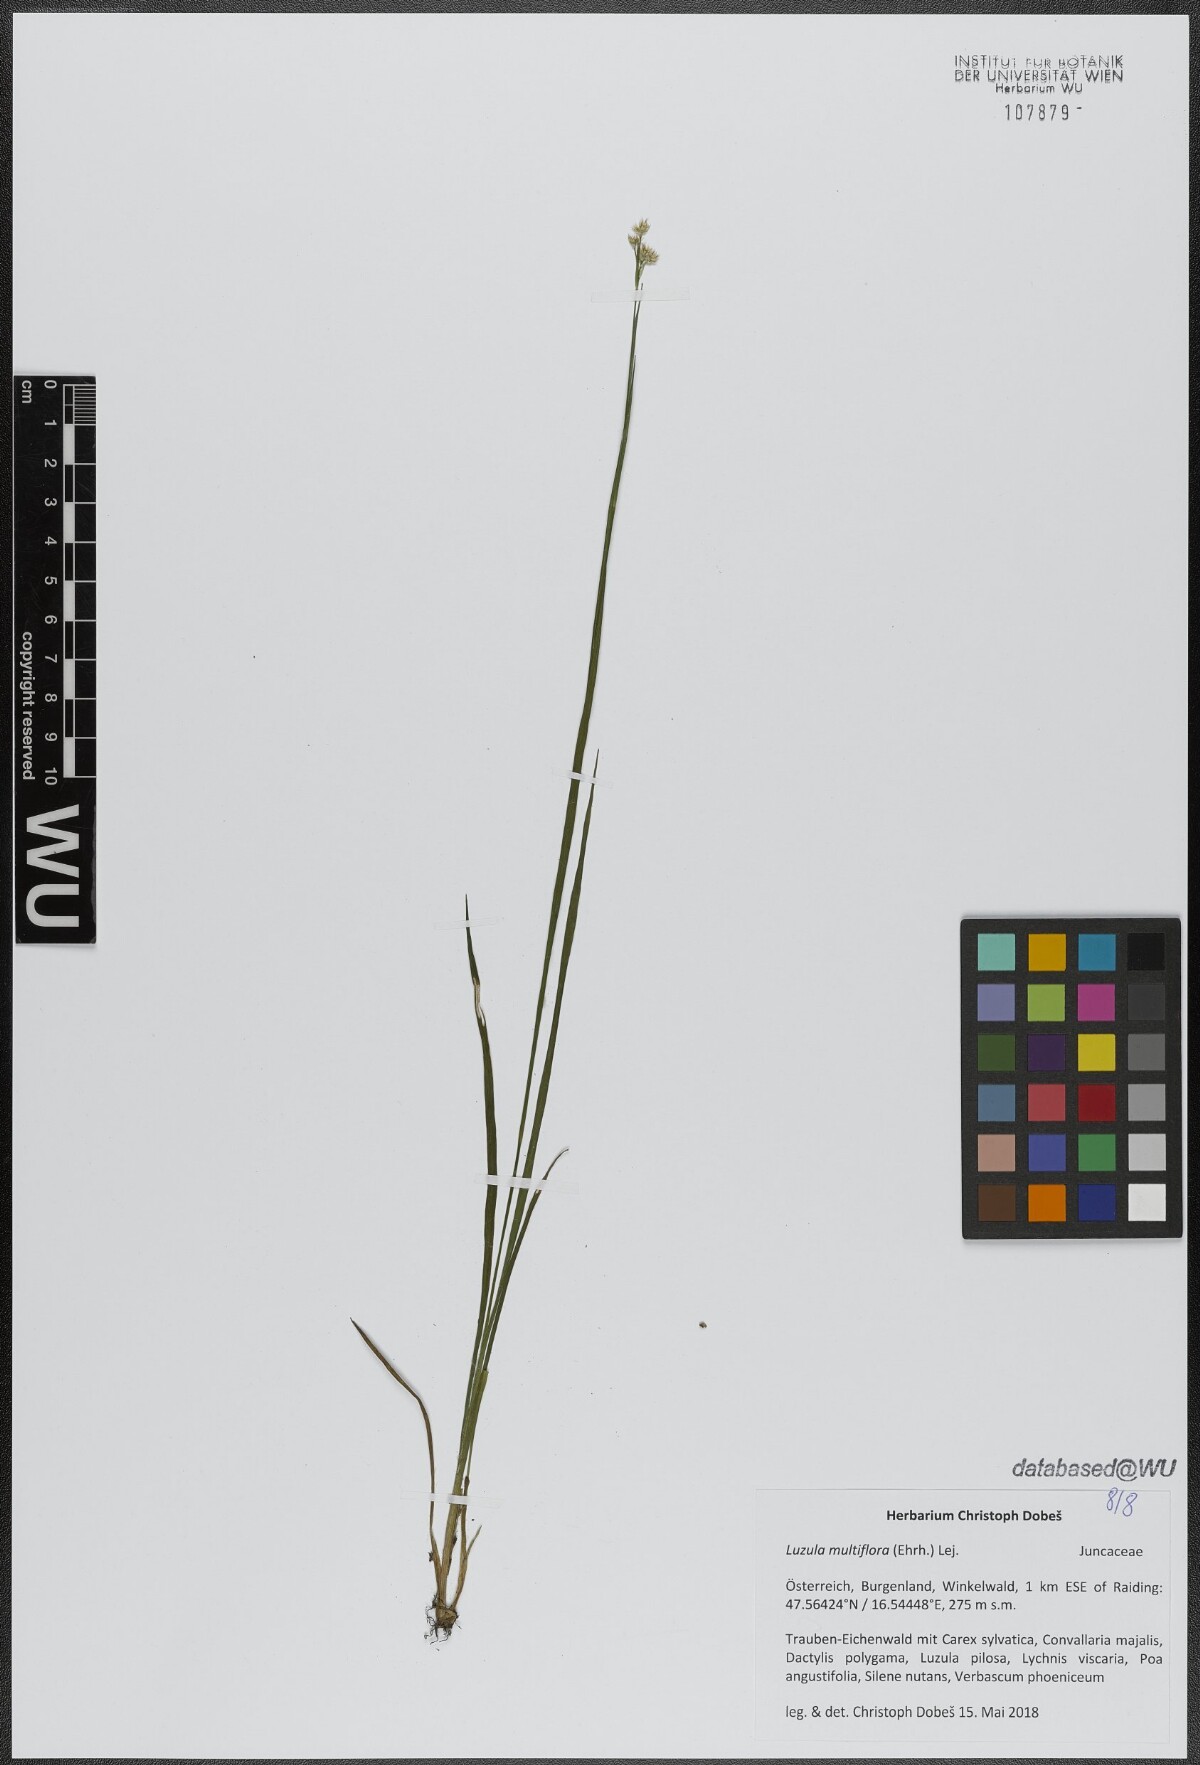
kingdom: Plantae
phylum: Tracheophyta
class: Liliopsida
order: Poales
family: Juncaceae
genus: Luzula
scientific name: Luzula multiflora
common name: Heath wood-rush
